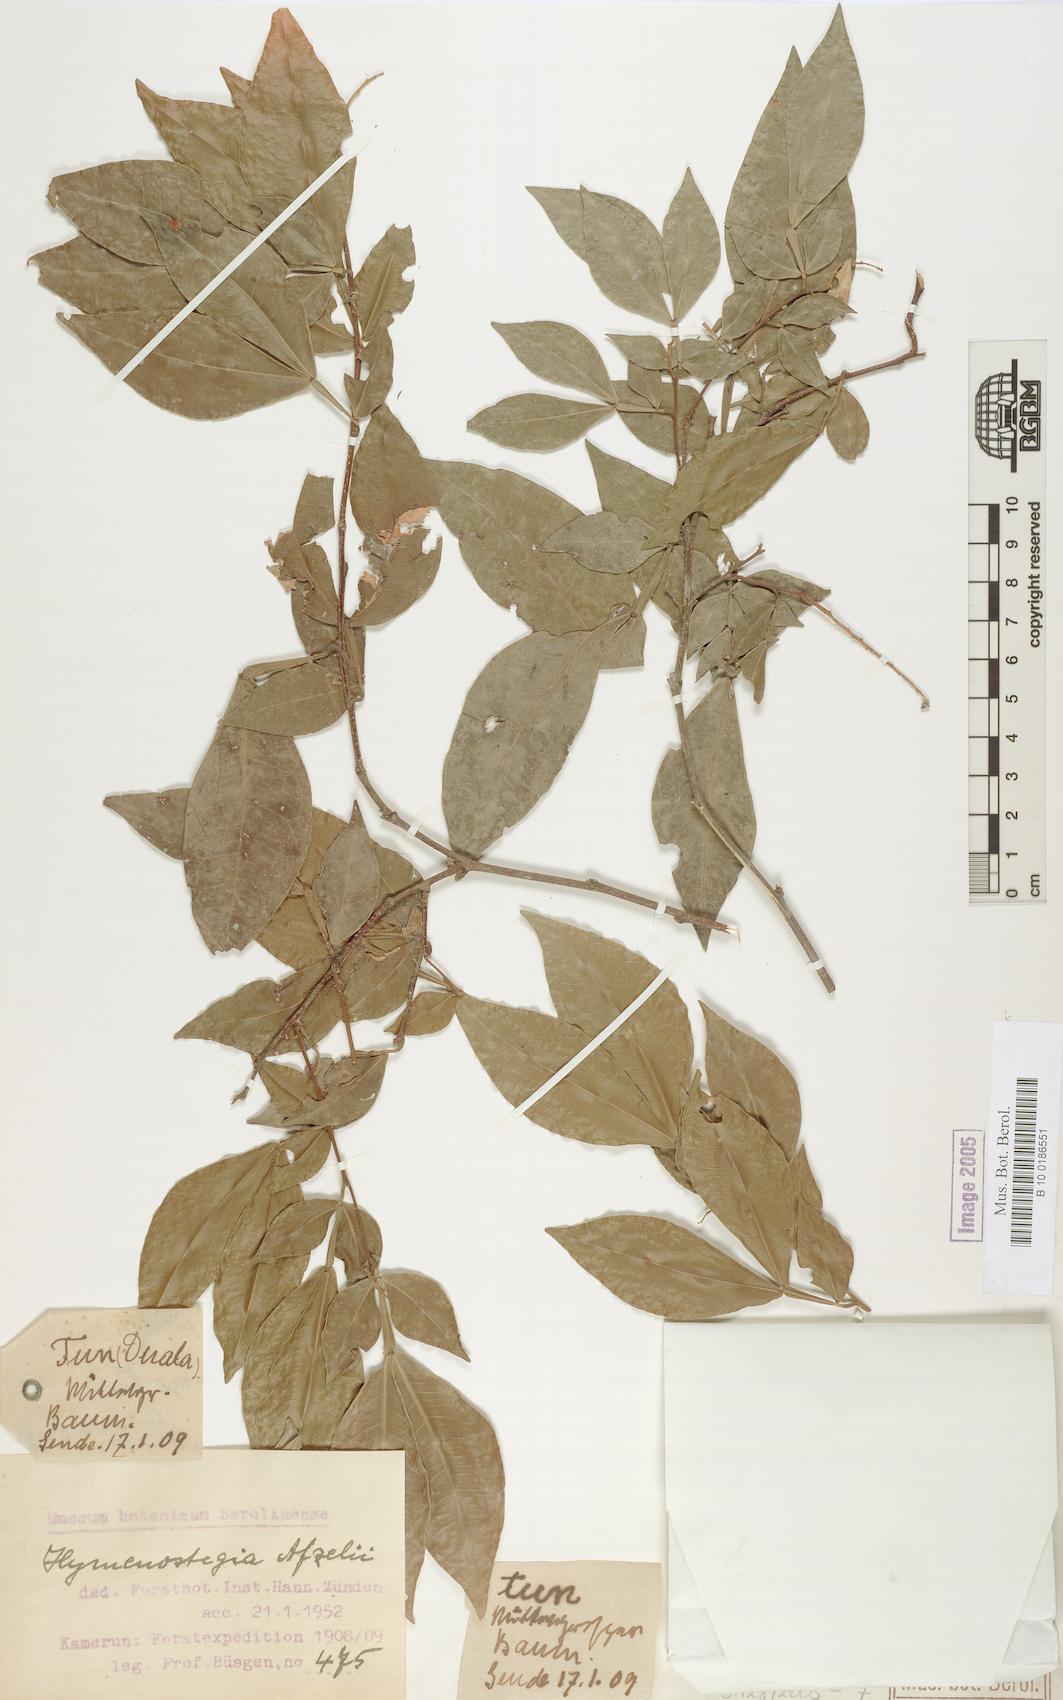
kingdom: Plantae
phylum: Tracheophyta
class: Magnoliopsida
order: Fabales
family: Fabaceae
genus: Annea
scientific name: Annea afzelii
